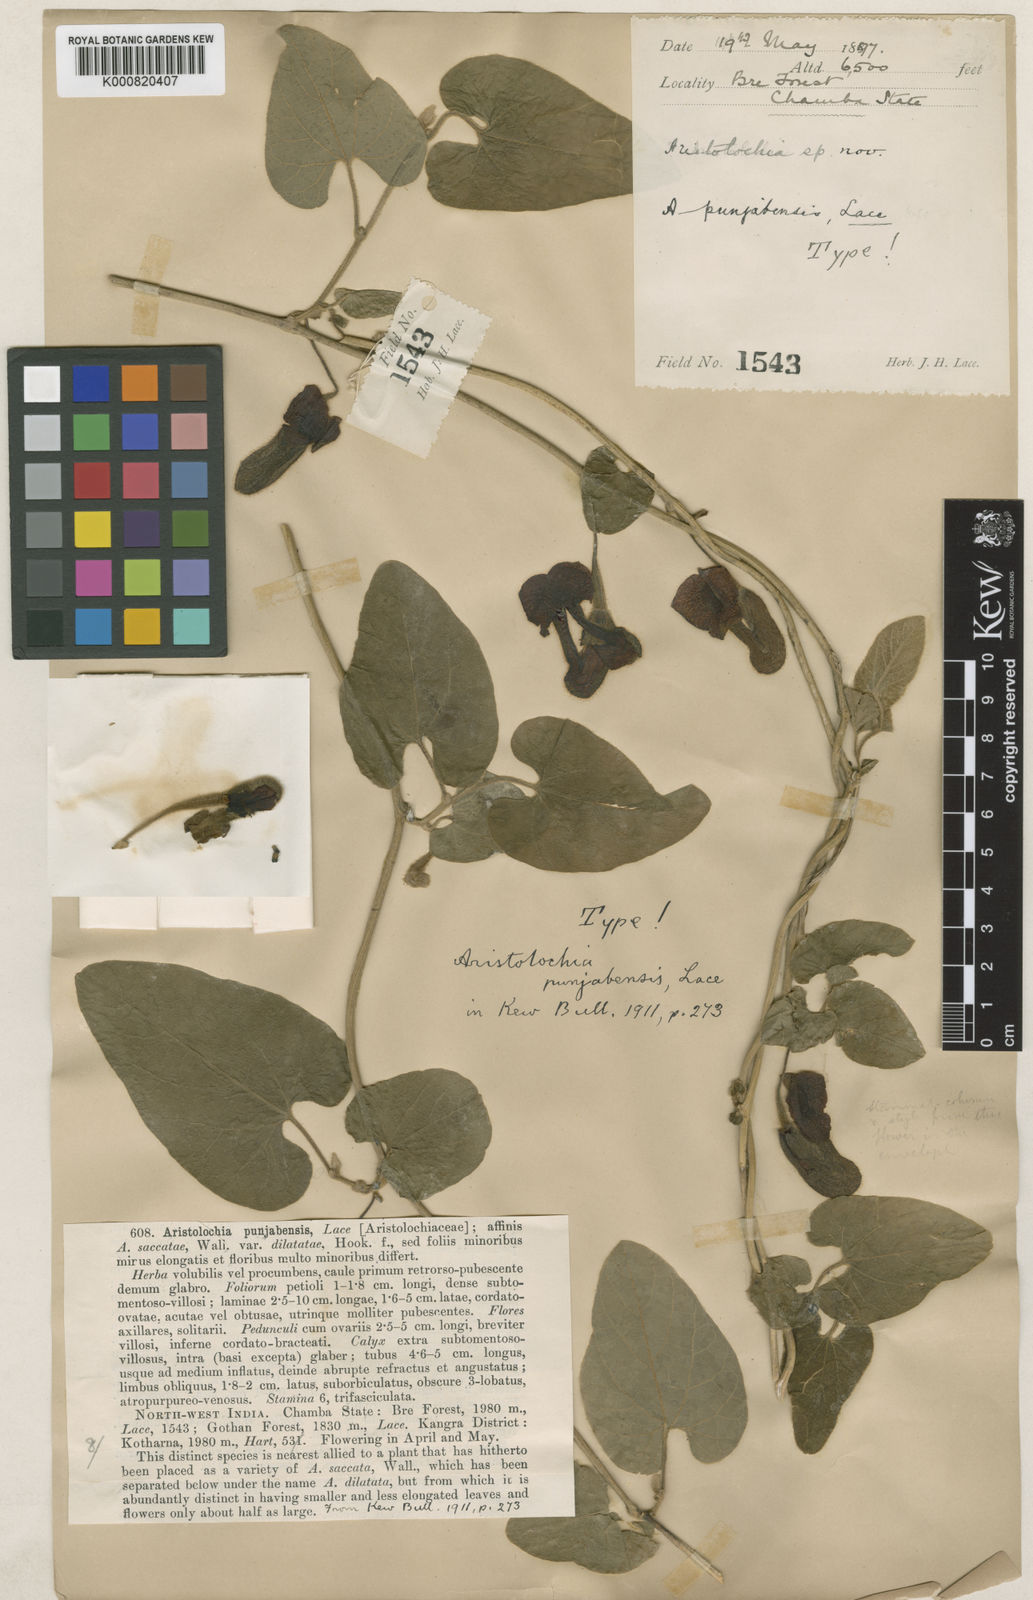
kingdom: Plantae
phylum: Tracheophyta
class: Magnoliopsida
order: Piperales
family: Aristolochiaceae
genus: Isotrema
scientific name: Isotrema
